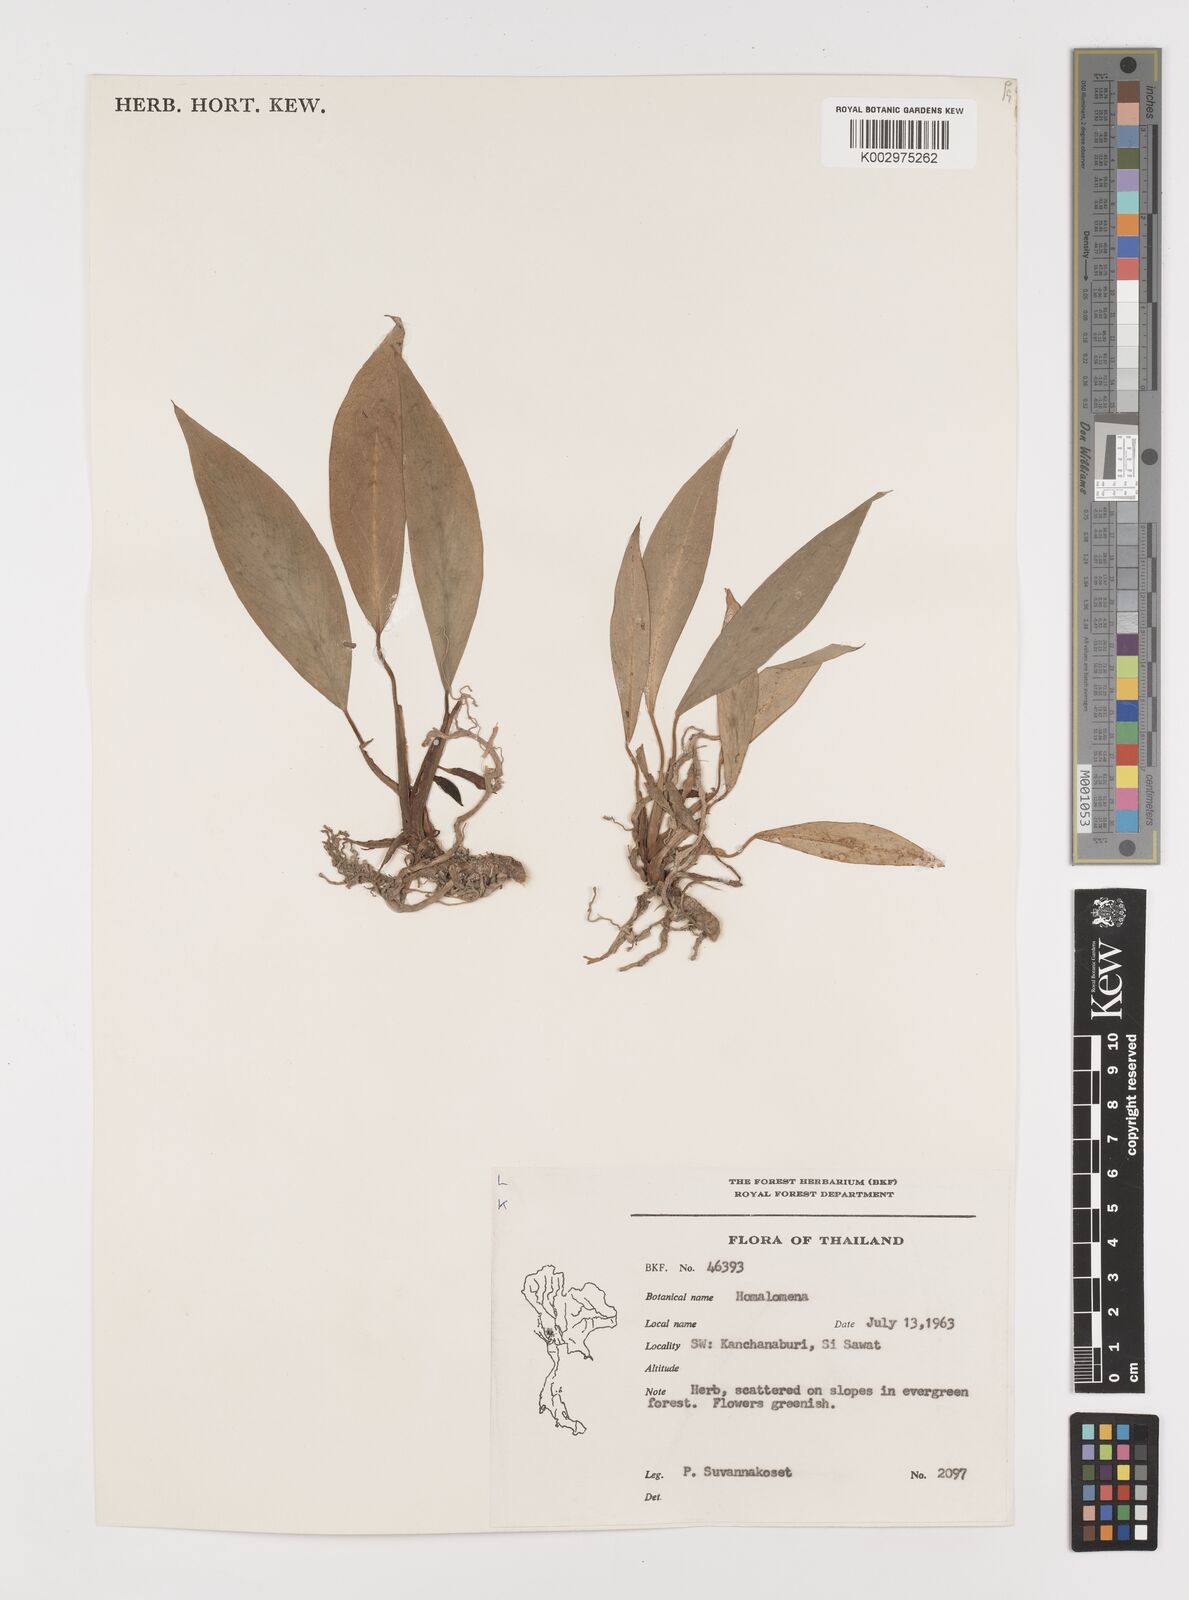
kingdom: Plantae
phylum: Tracheophyta
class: Liliopsida
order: Alismatales
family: Araceae
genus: Homalomena
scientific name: Homalomena
